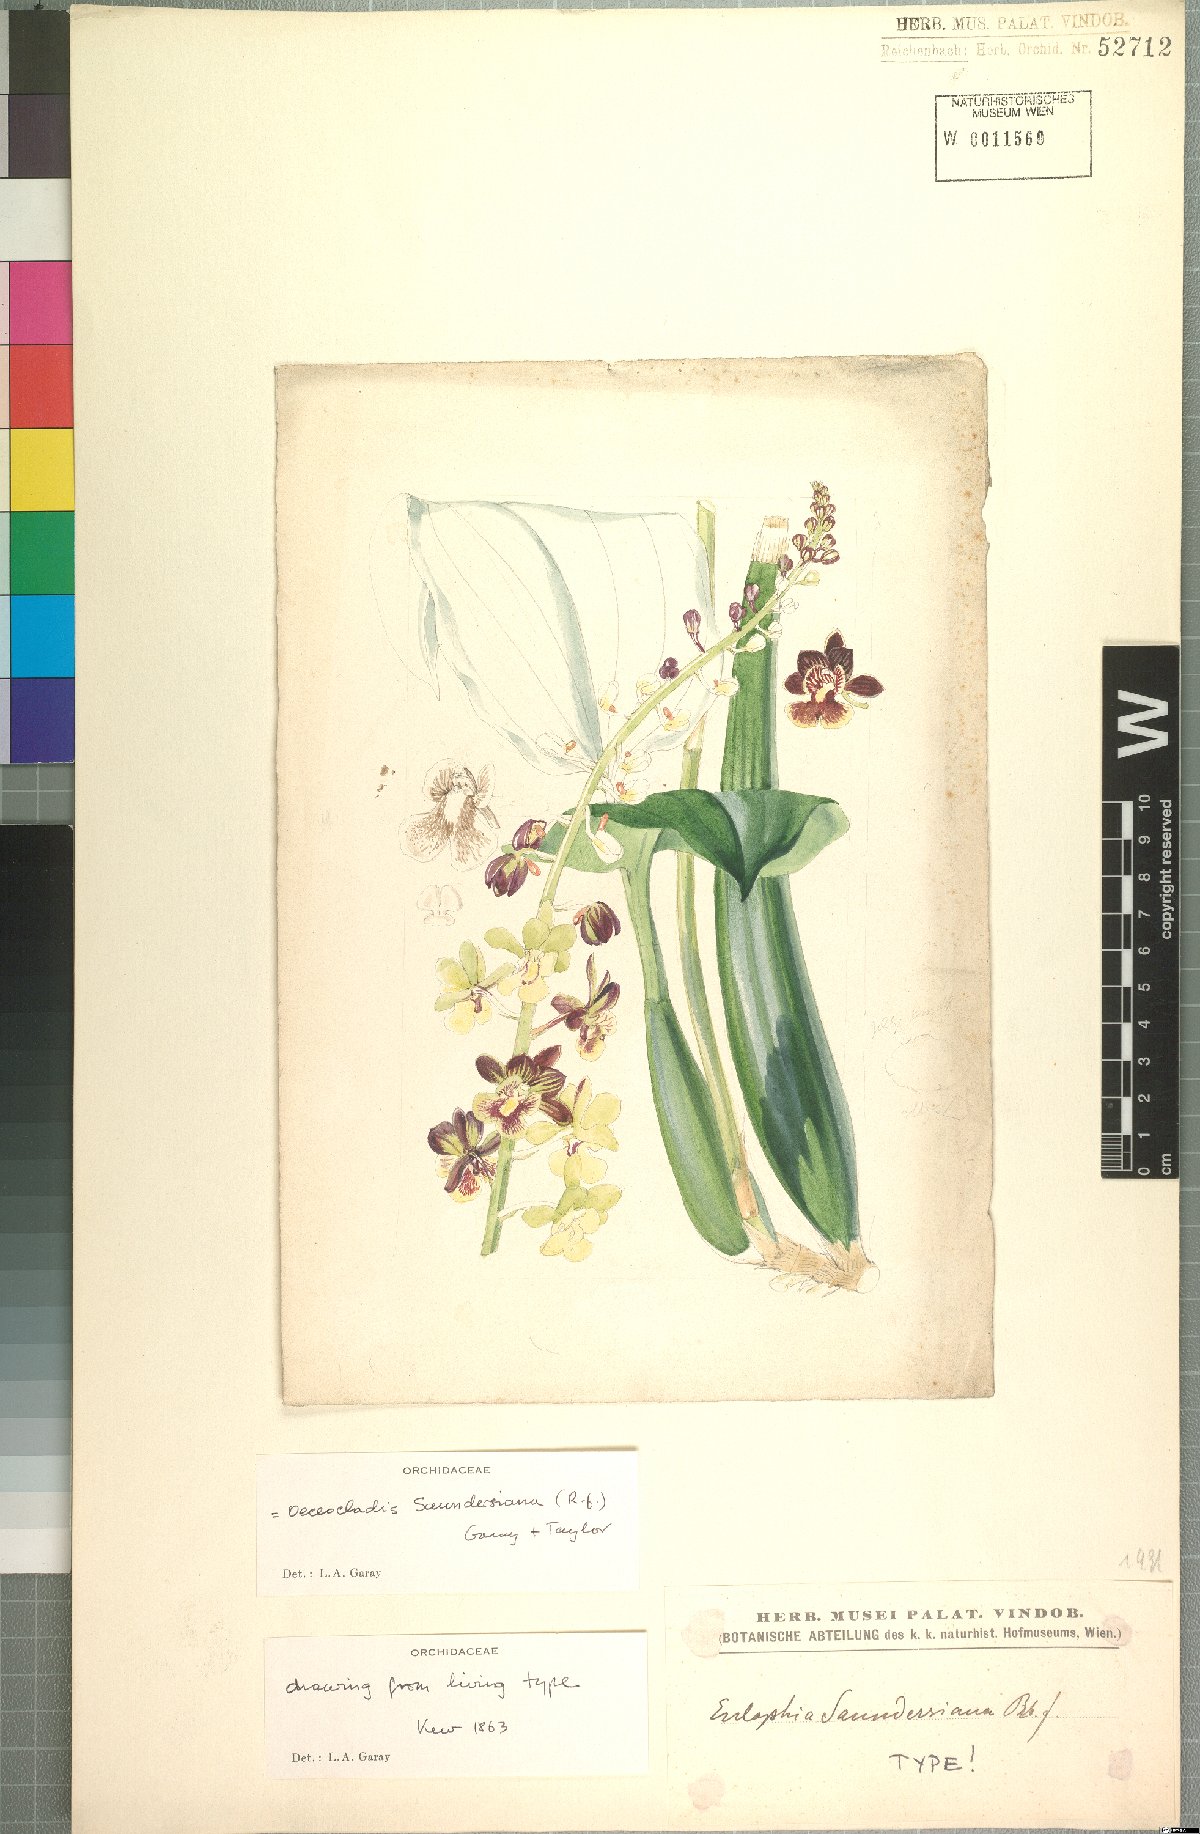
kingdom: Plantae
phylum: Tracheophyta
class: Liliopsida
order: Asparagales
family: Orchidaceae
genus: Eulophia
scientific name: Eulophia saundersiana
